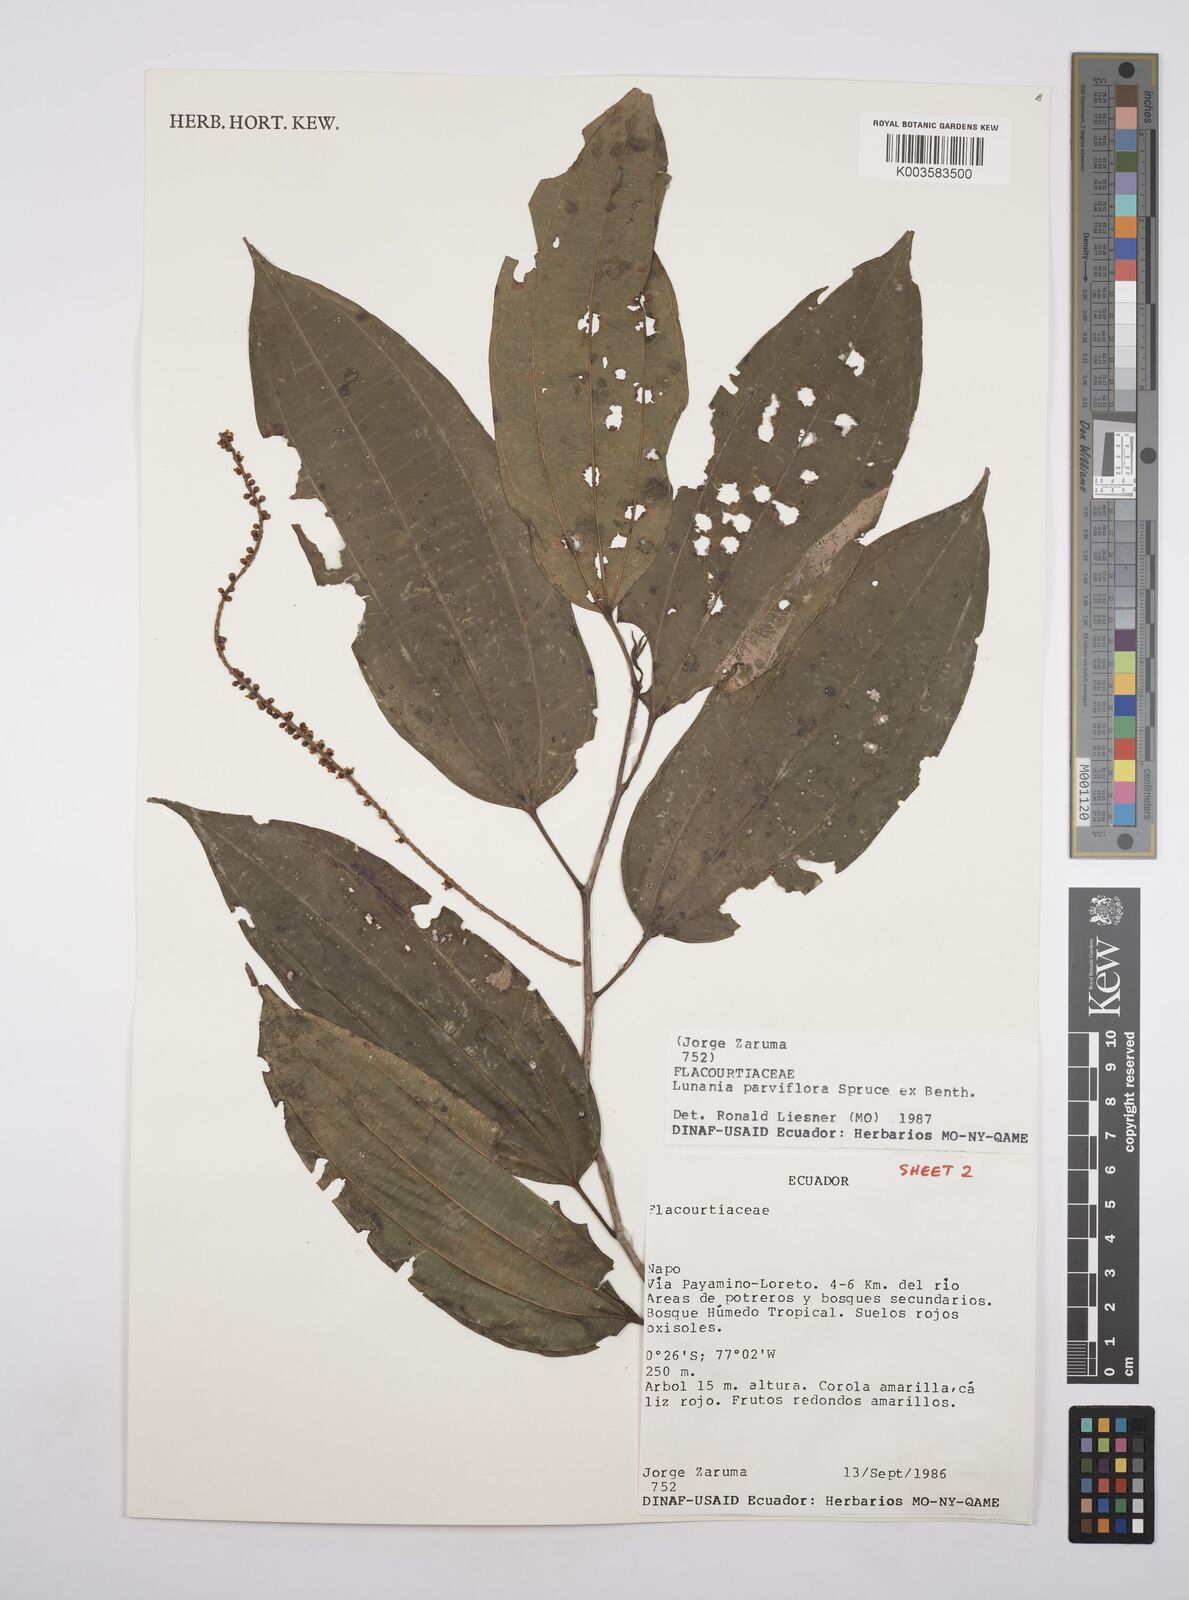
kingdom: Plantae
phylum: Tracheophyta
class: Magnoliopsida
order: Malpighiales
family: Salicaceae
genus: Lunania
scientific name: Lunania parviflora
